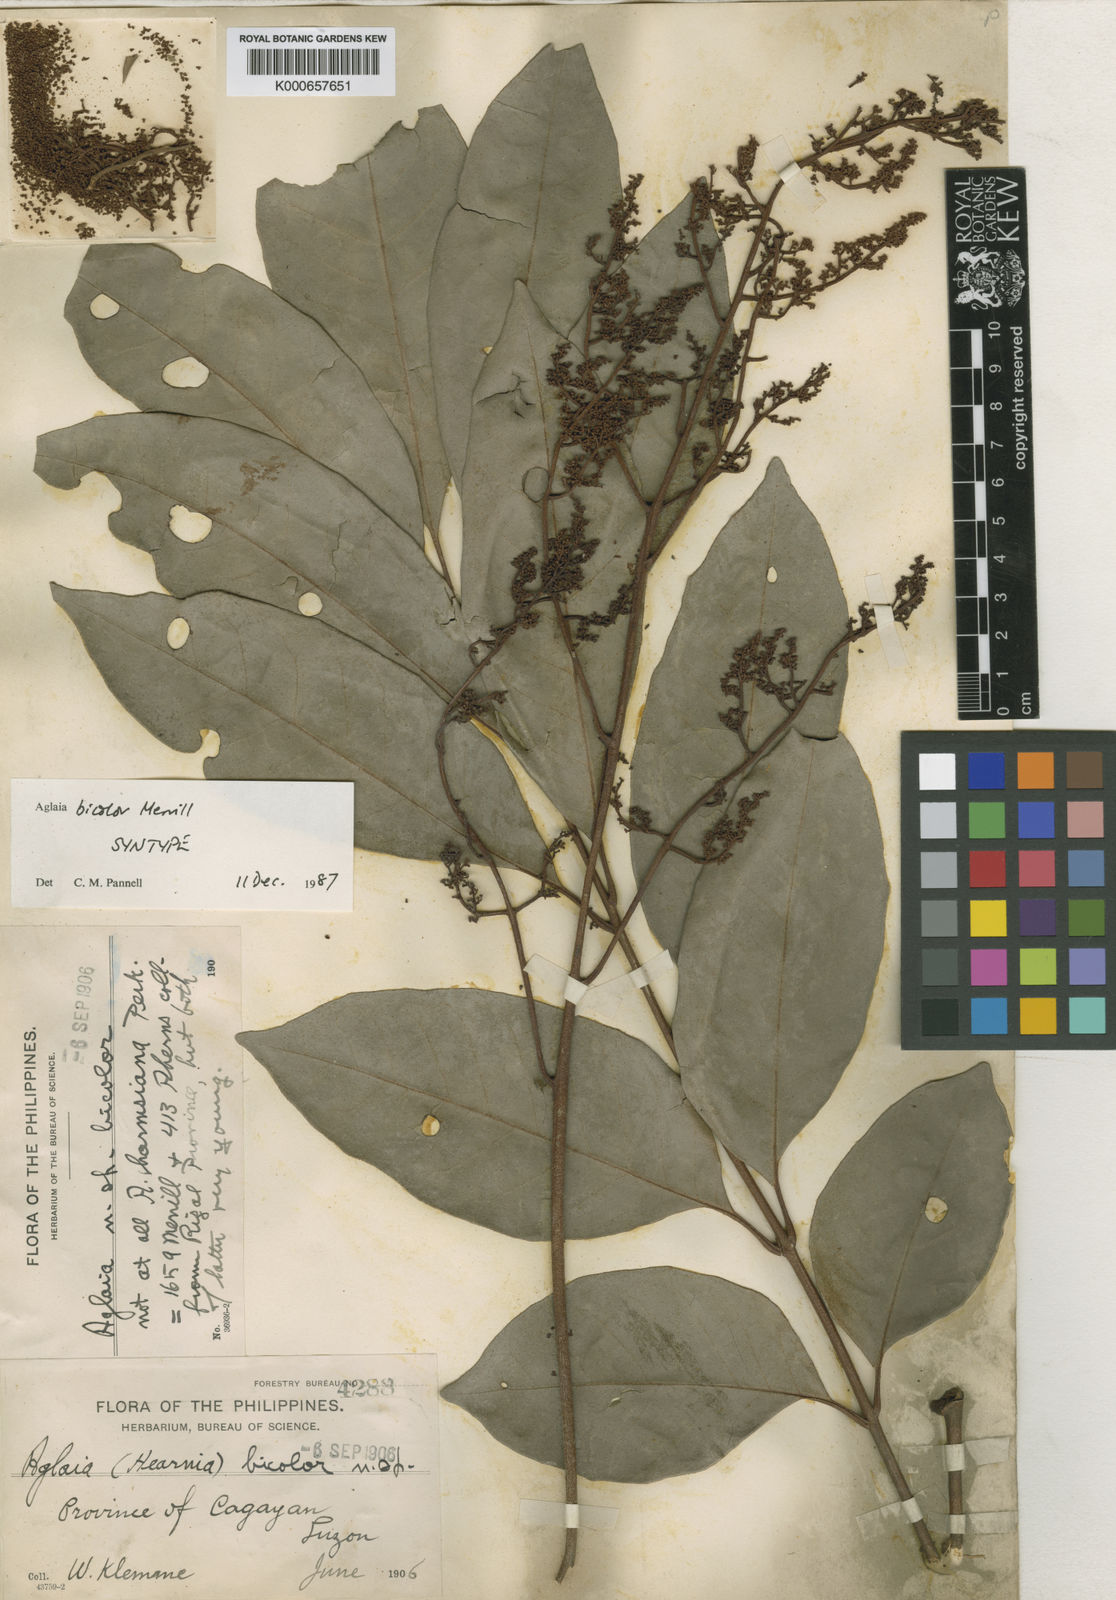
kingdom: Plantae
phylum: Tracheophyta
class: Magnoliopsida
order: Sapindales
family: Meliaceae
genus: Aglaia
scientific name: Aglaia smithii
